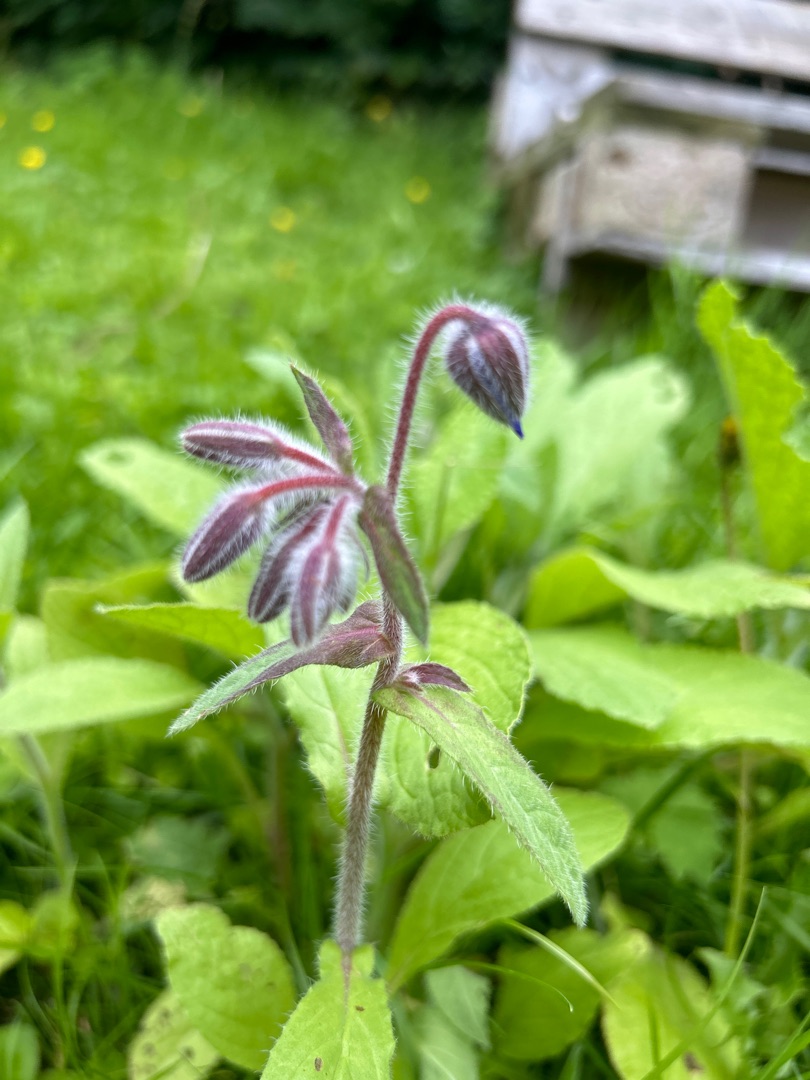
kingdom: Plantae
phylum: Tracheophyta
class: Magnoliopsida
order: Boraginales
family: Boraginaceae
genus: Borago
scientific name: Borago officinalis
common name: Hjulkrone
